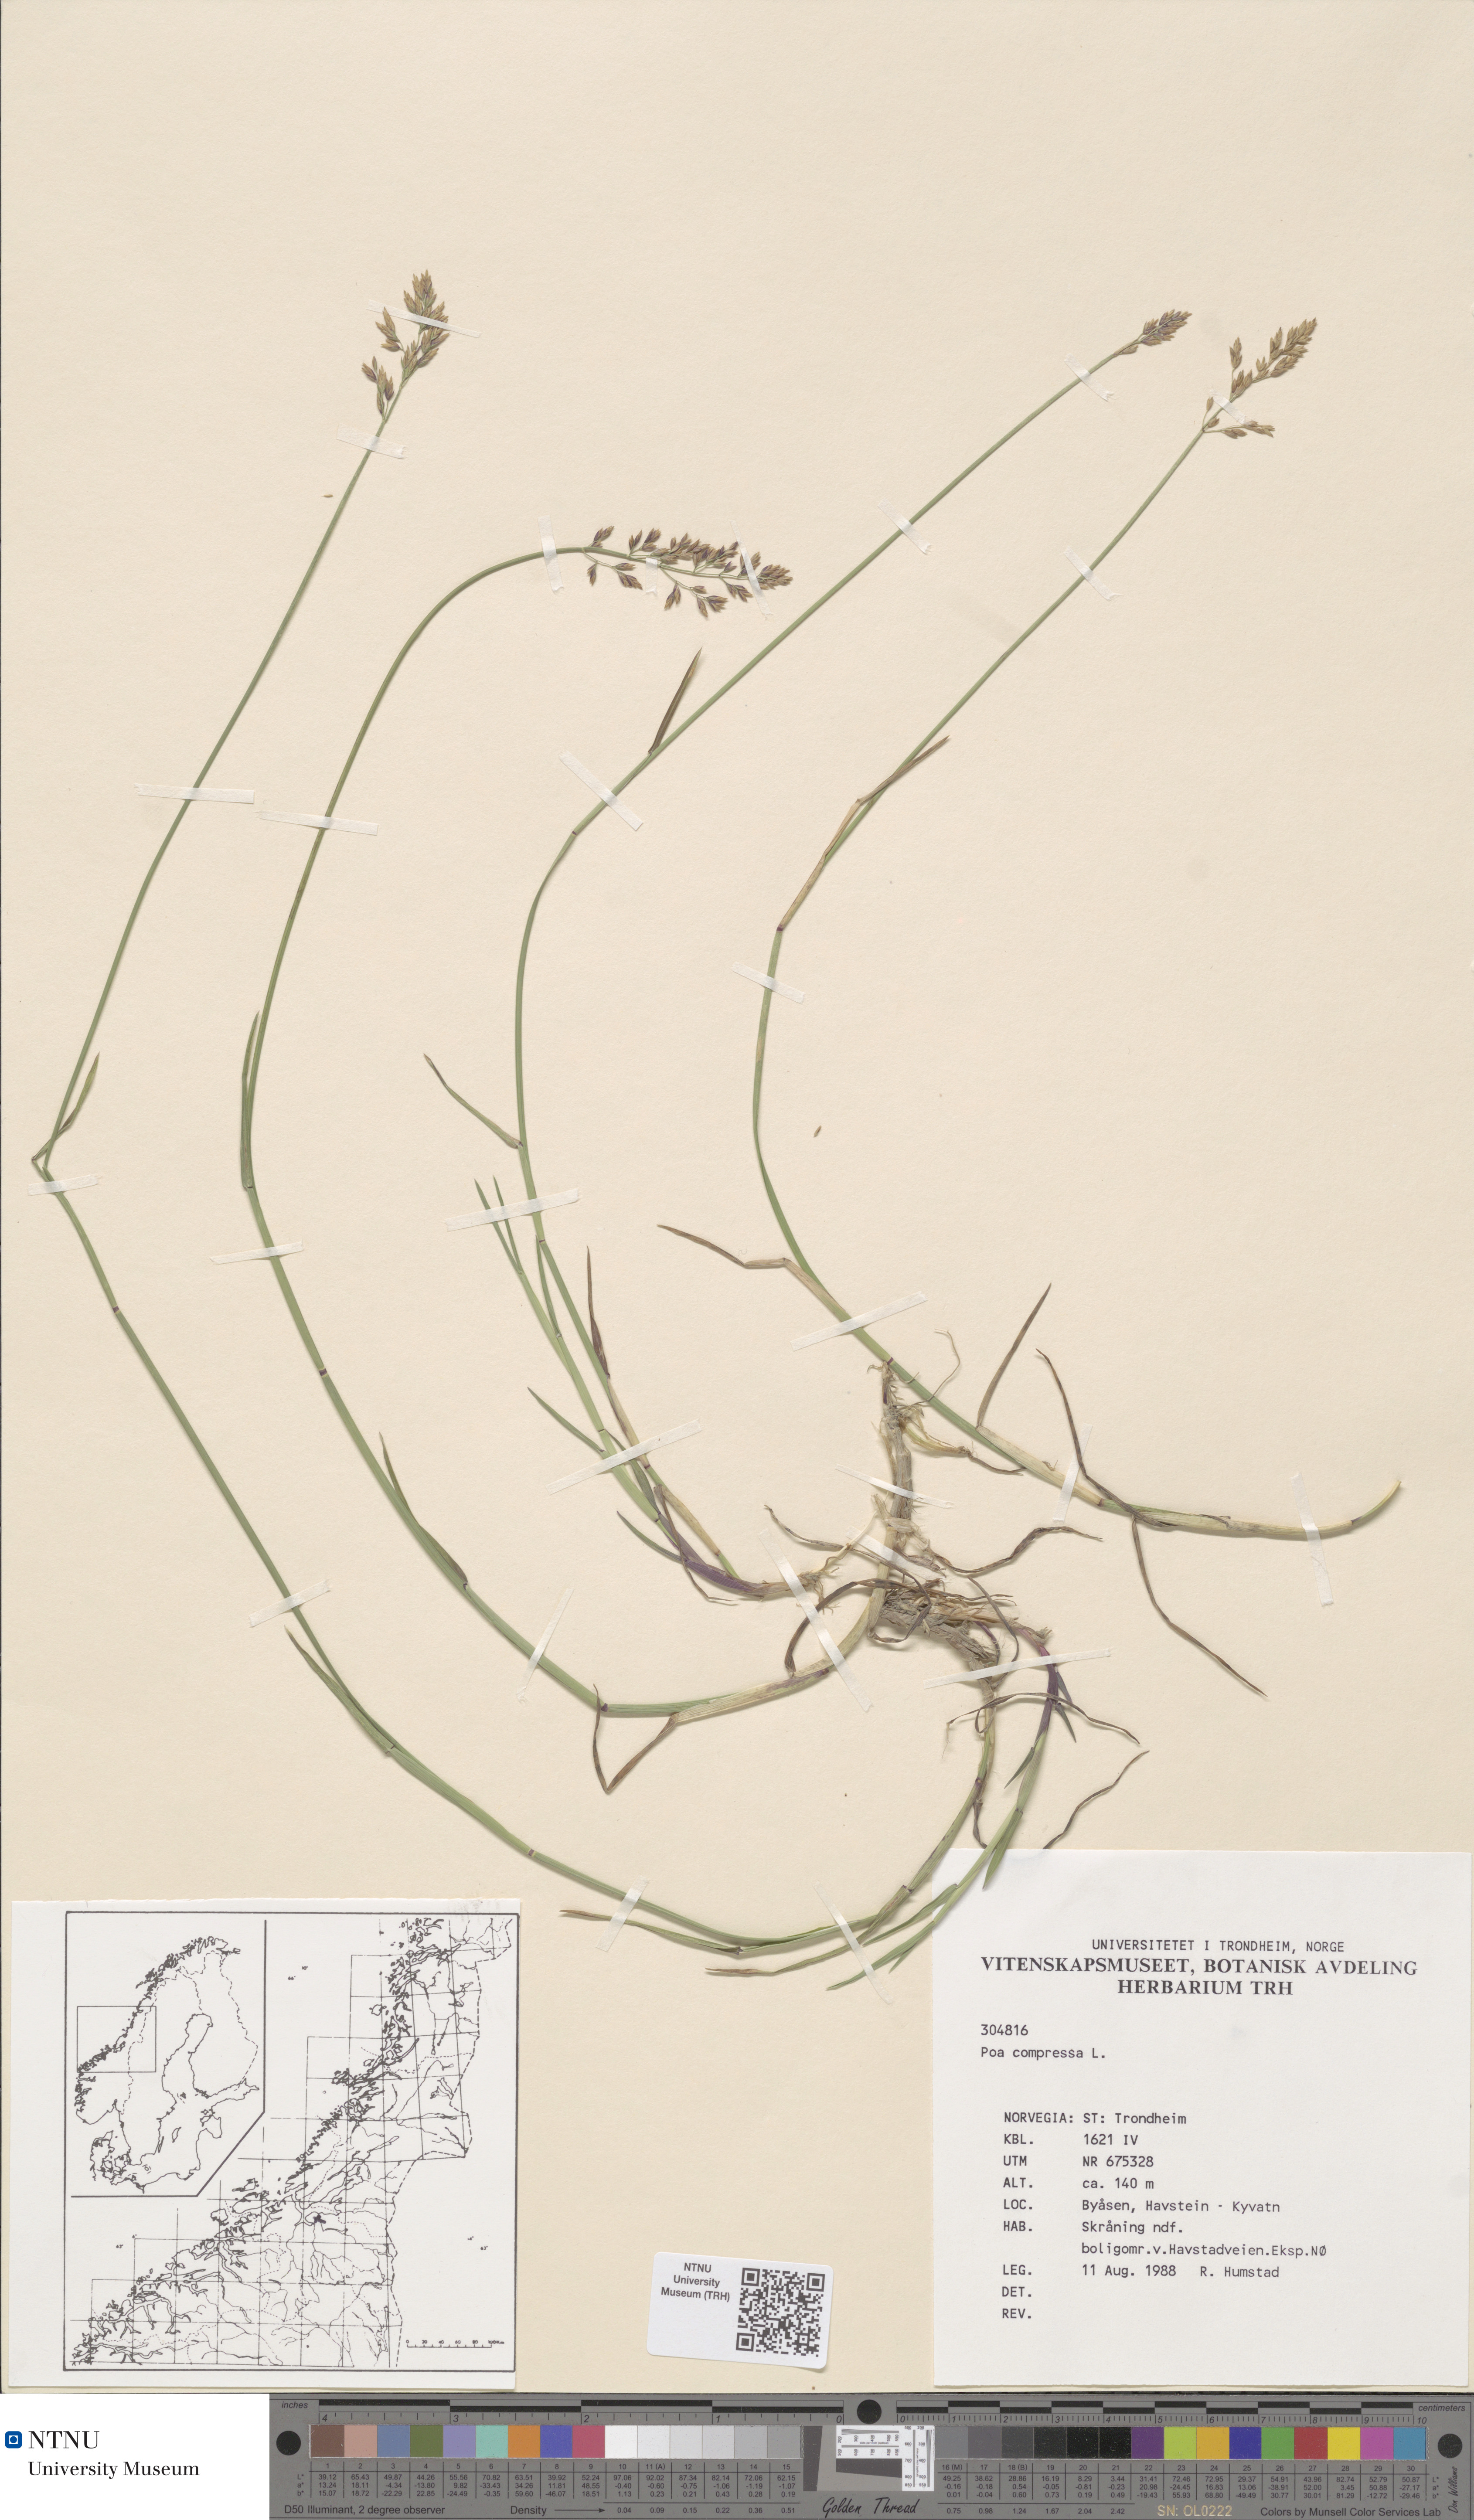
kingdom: Plantae
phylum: Tracheophyta
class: Liliopsida
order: Poales
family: Poaceae
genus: Poa
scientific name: Poa compressa
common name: Canada bluegrass
